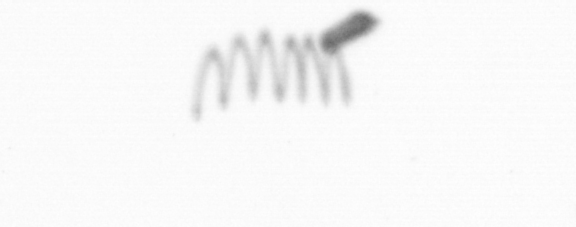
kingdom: Chromista
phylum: Ochrophyta
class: Bacillariophyceae
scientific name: Bacillariophyceae
